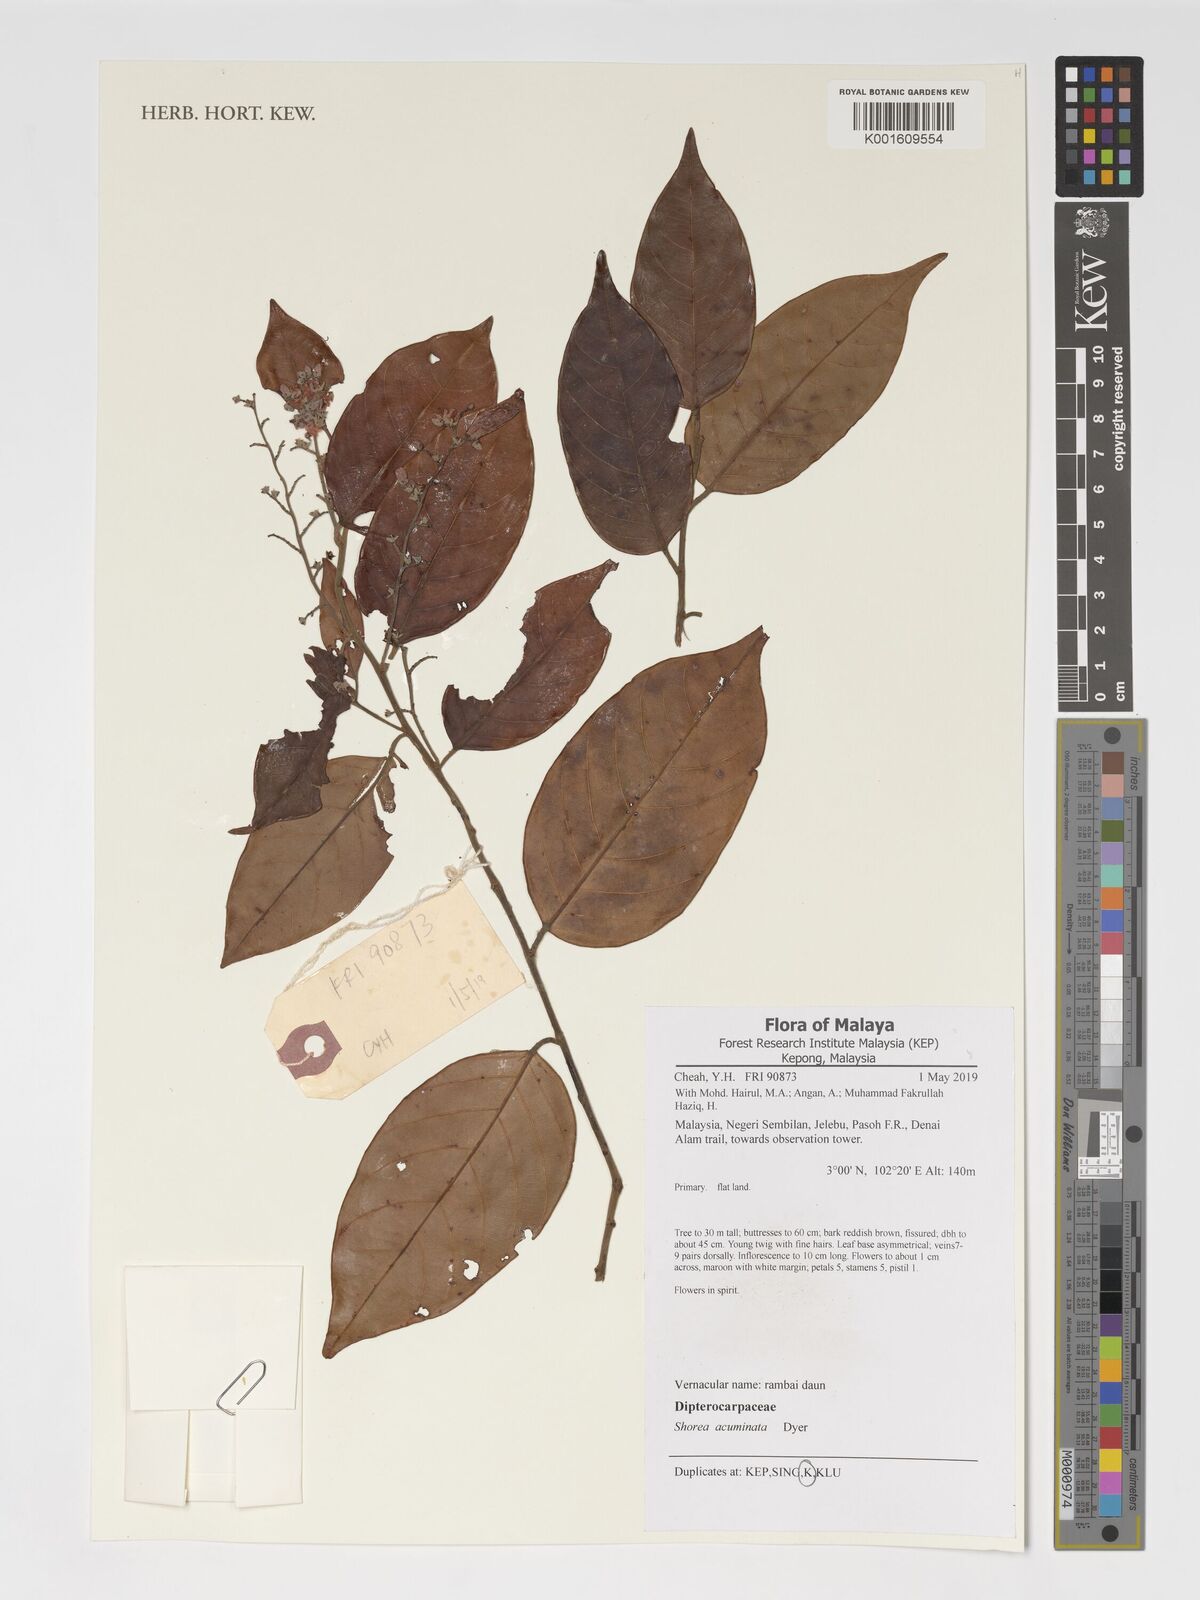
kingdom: Plantae
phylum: Tracheophyta
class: Magnoliopsida
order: Malvales
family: Dipterocarpaceae
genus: Shorea
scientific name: Shorea acuminata
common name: Dark red meranti
